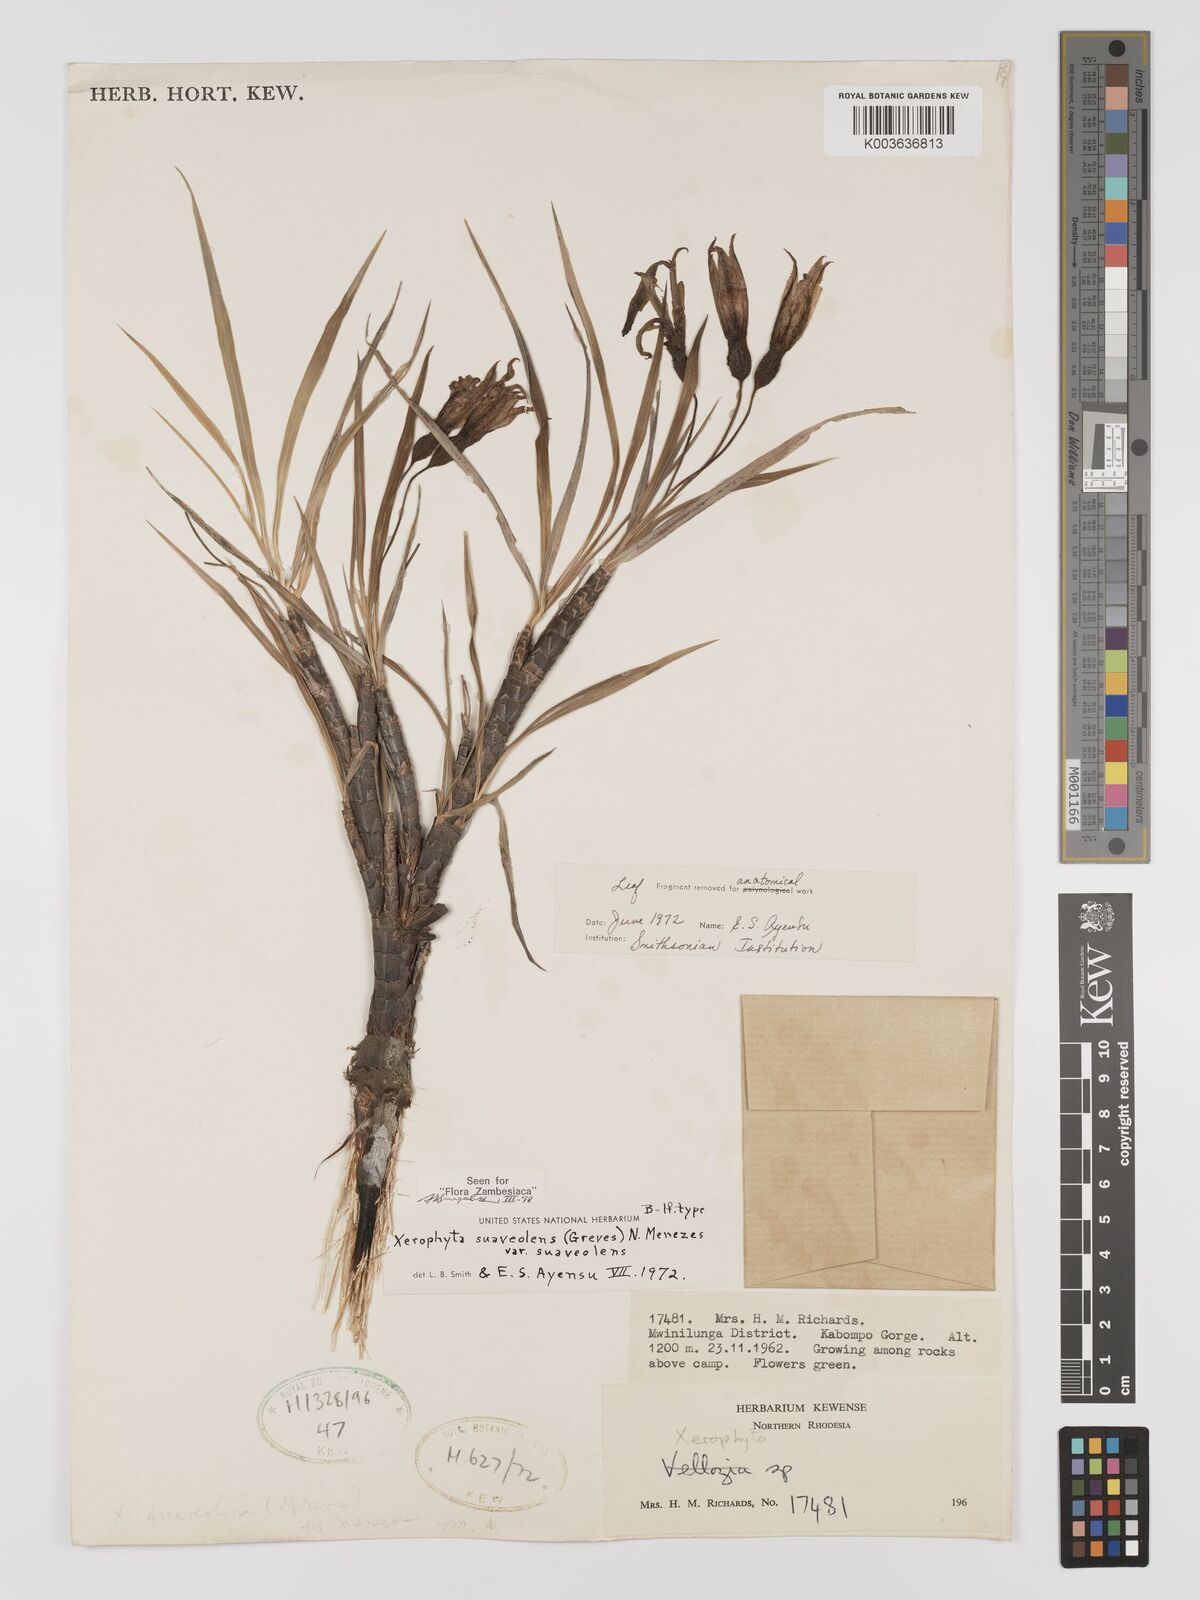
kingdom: Plantae
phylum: Tracheophyta
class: Liliopsida
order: Pandanales
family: Velloziaceae
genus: Xerophyta
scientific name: Xerophyta suaveolens
